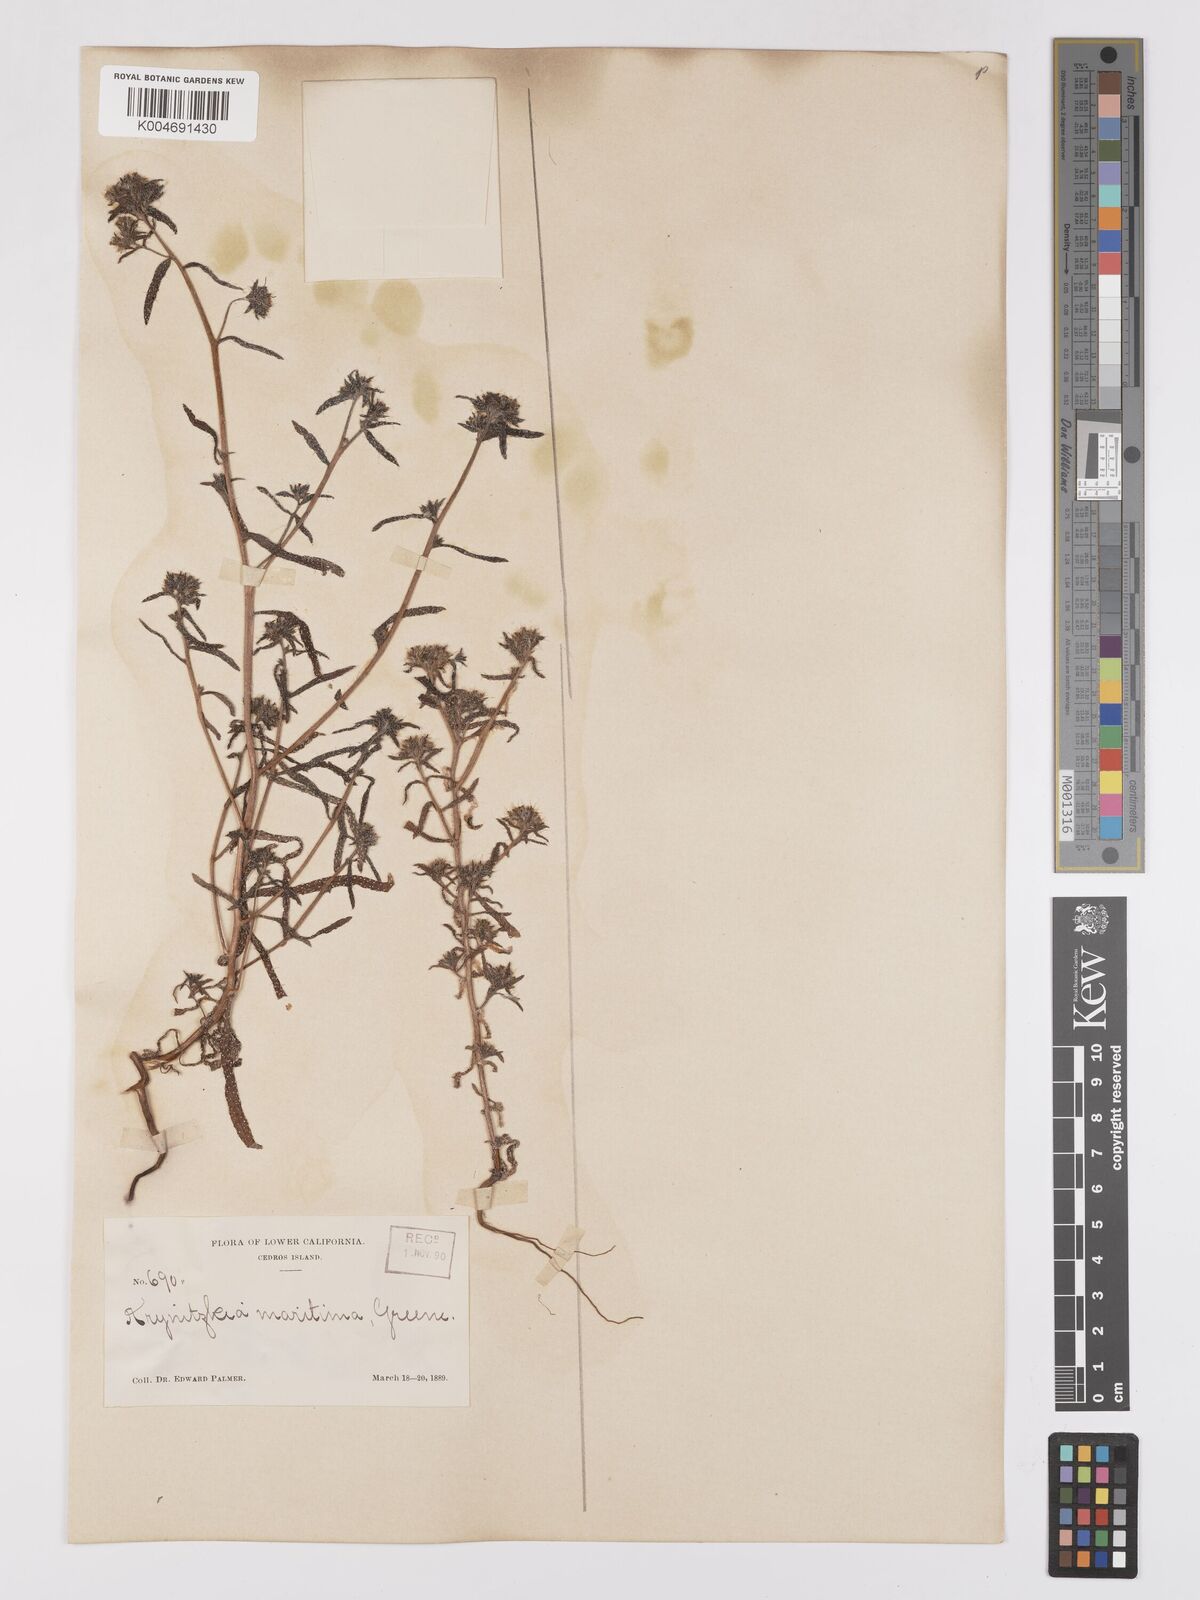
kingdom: Plantae
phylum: Tracheophyta
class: Magnoliopsida
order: Boraginales
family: Boraginaceae
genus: Cryptantha
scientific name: Cryptantha maritima
